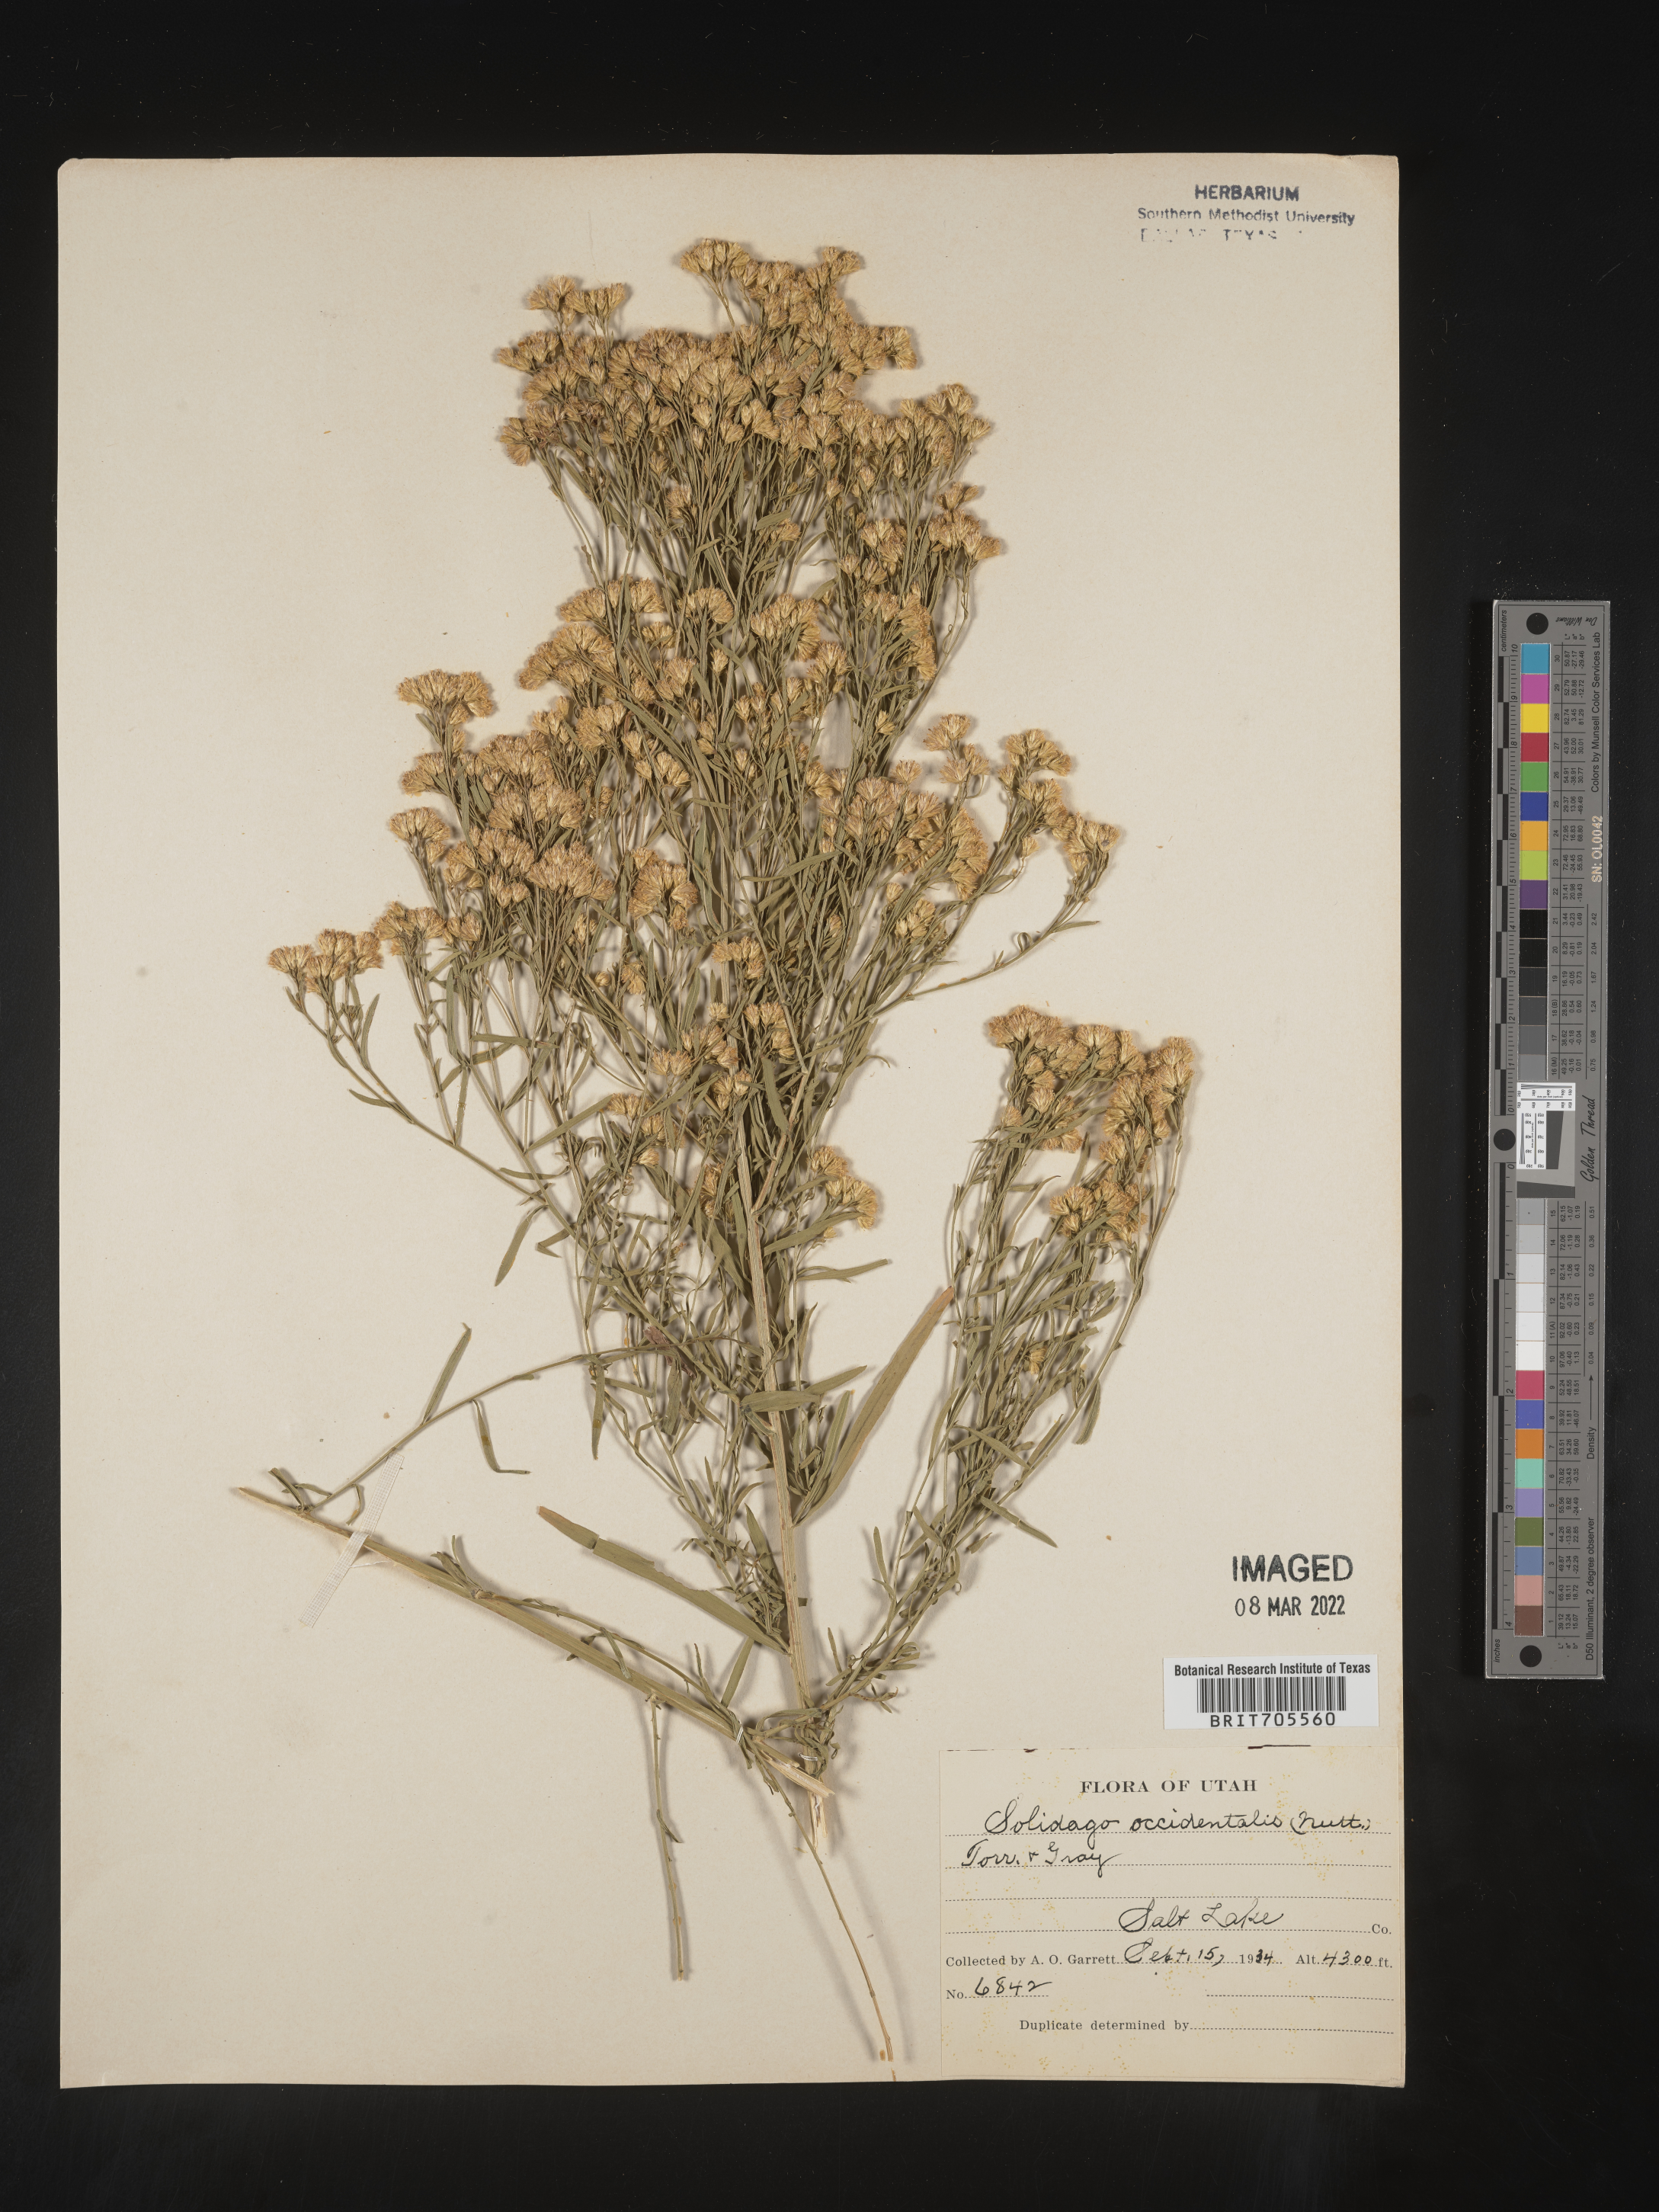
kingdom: Plantae
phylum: Tracheophyta
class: Magnoliopsida
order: Asterales
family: Asteraceae
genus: Euthamia
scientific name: Euthamia occidentalis
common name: Western goldentop
